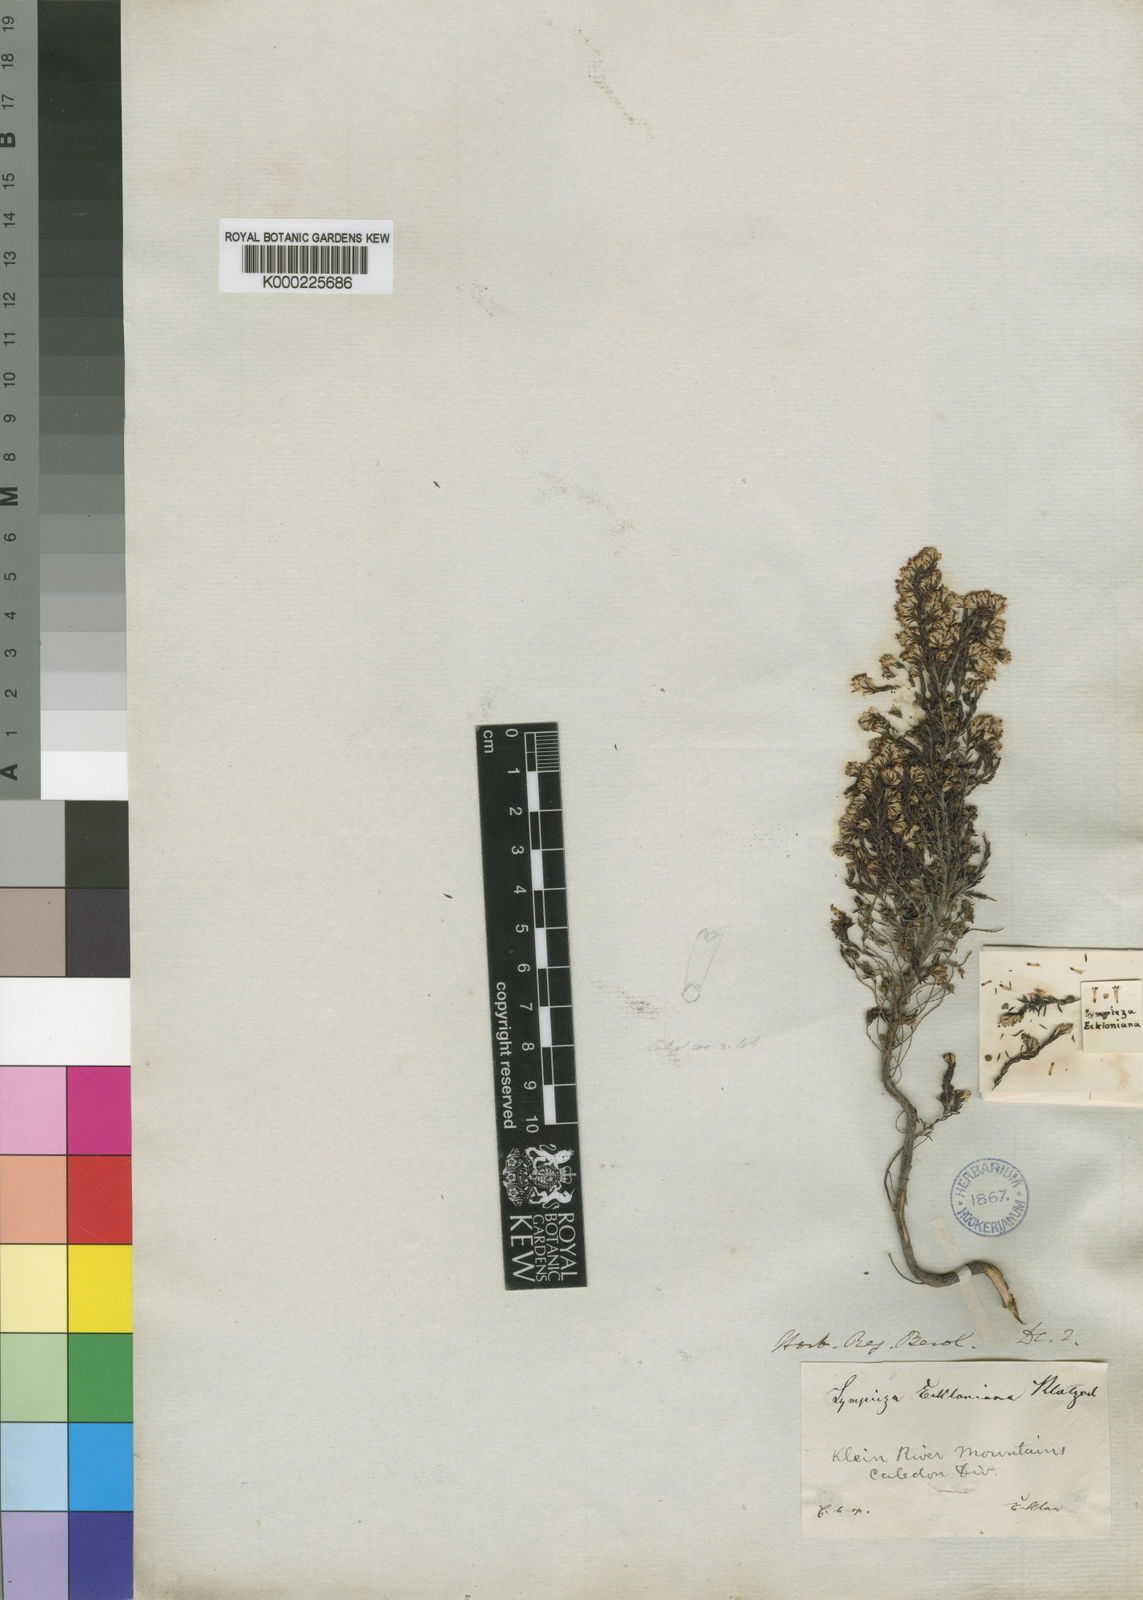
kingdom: Plantae
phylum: Tracheophyta
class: Magnoliopsida
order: Ericales
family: Ericaceae
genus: Erica
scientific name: Erica ecklonii
